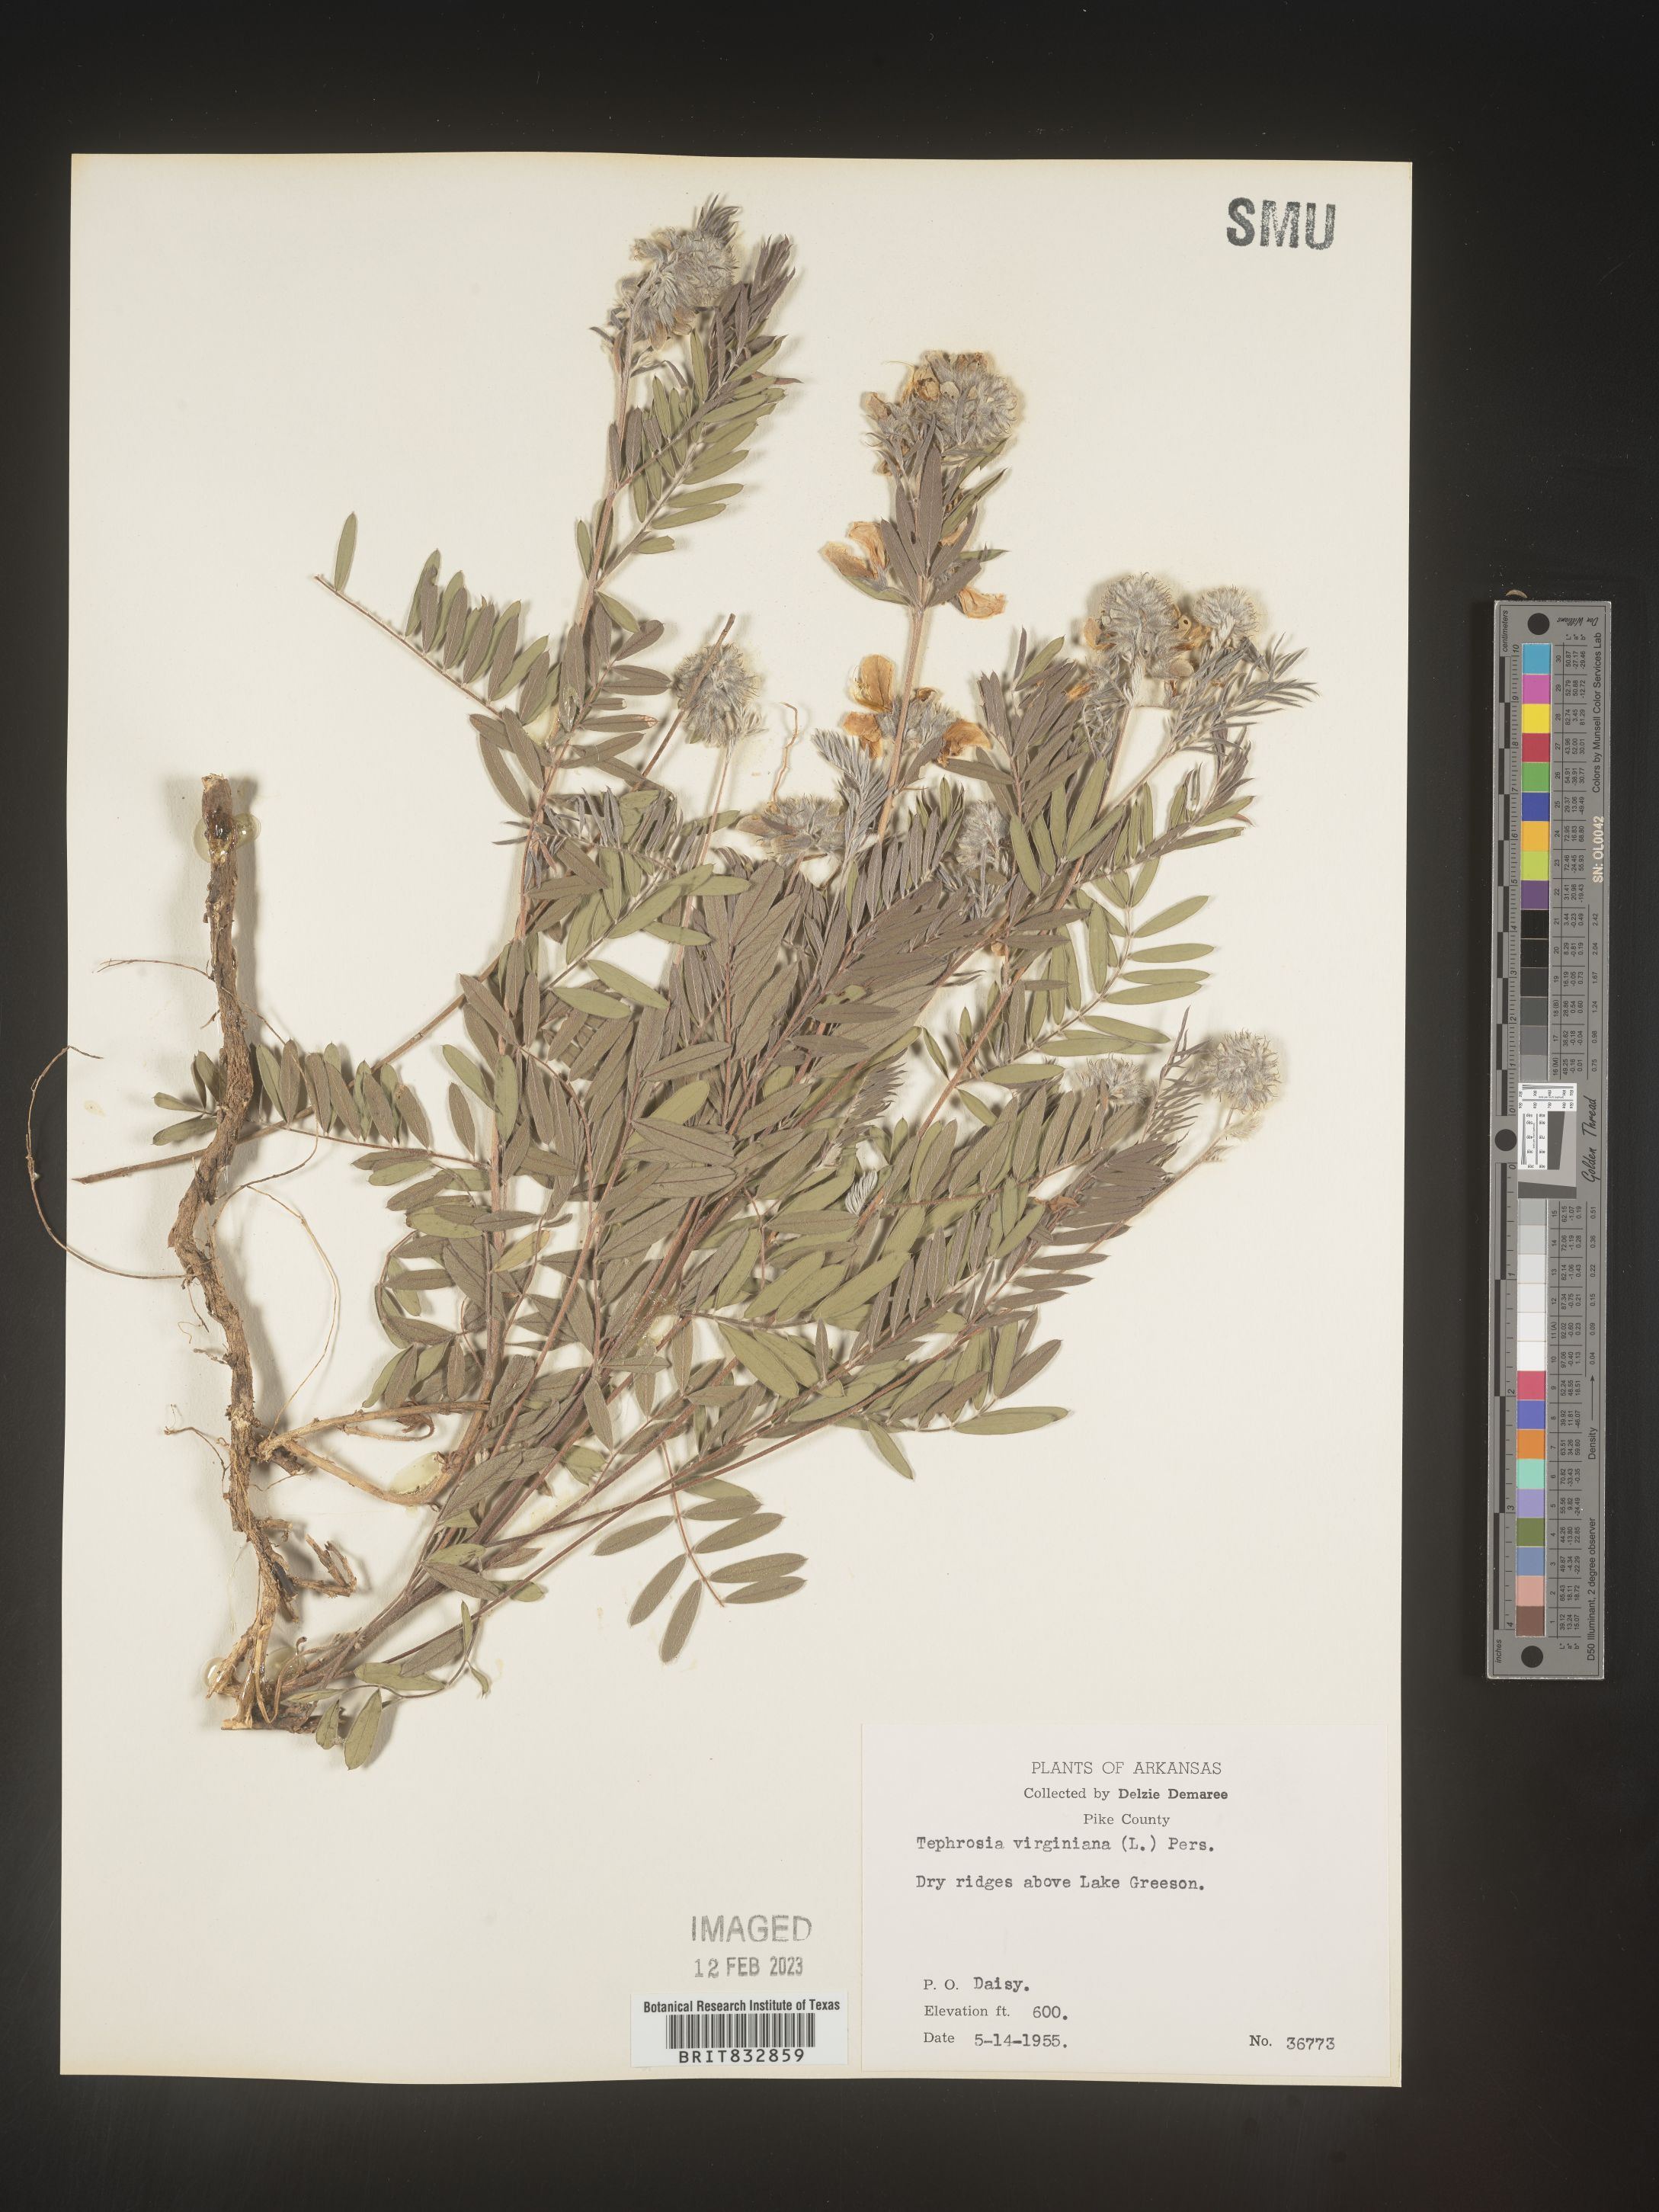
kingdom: Plantae
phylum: Tracheophyta
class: Magnoliopsida
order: Fabales
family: Fabaceae
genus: Tephrosia
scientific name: Tephrosia virginiana
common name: Rabbit-pea
